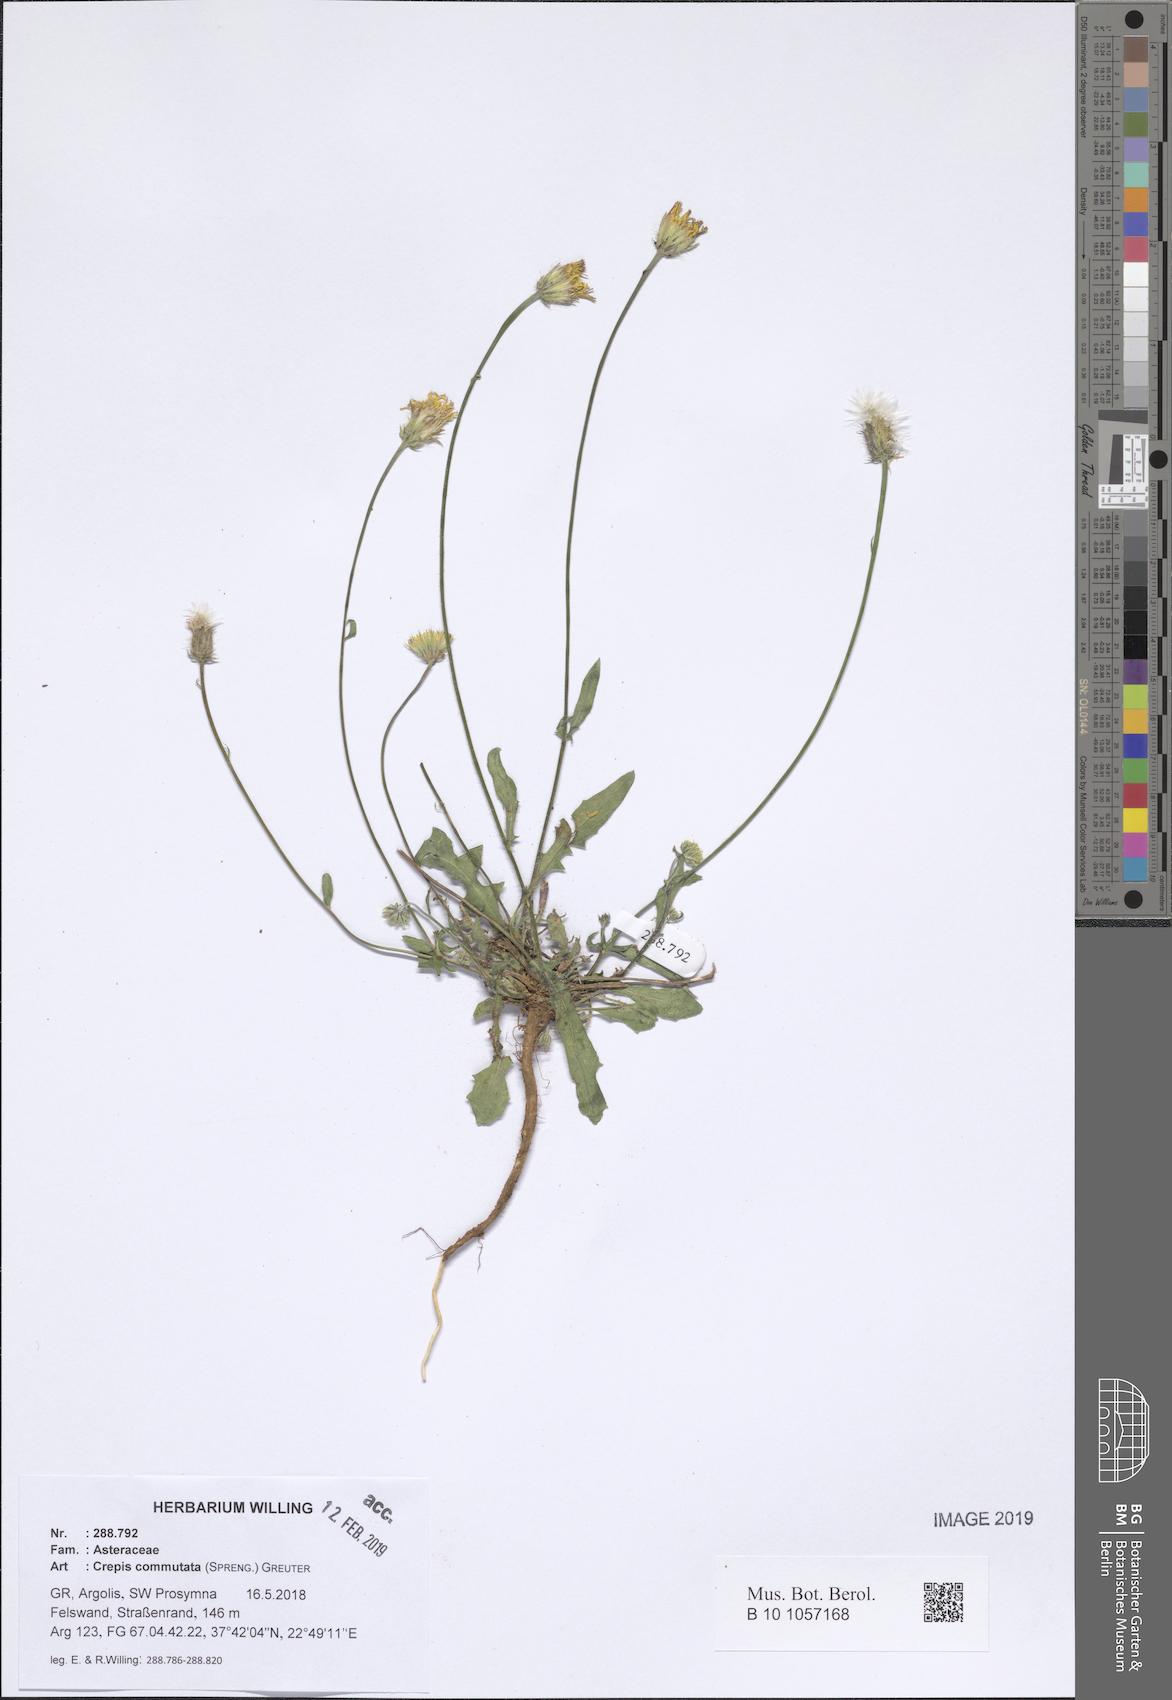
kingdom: Plantae
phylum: Tracheophyta
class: Magnoliopsida
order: Asterales
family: Asteraceae
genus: Crepis
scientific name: Crepis commutata
